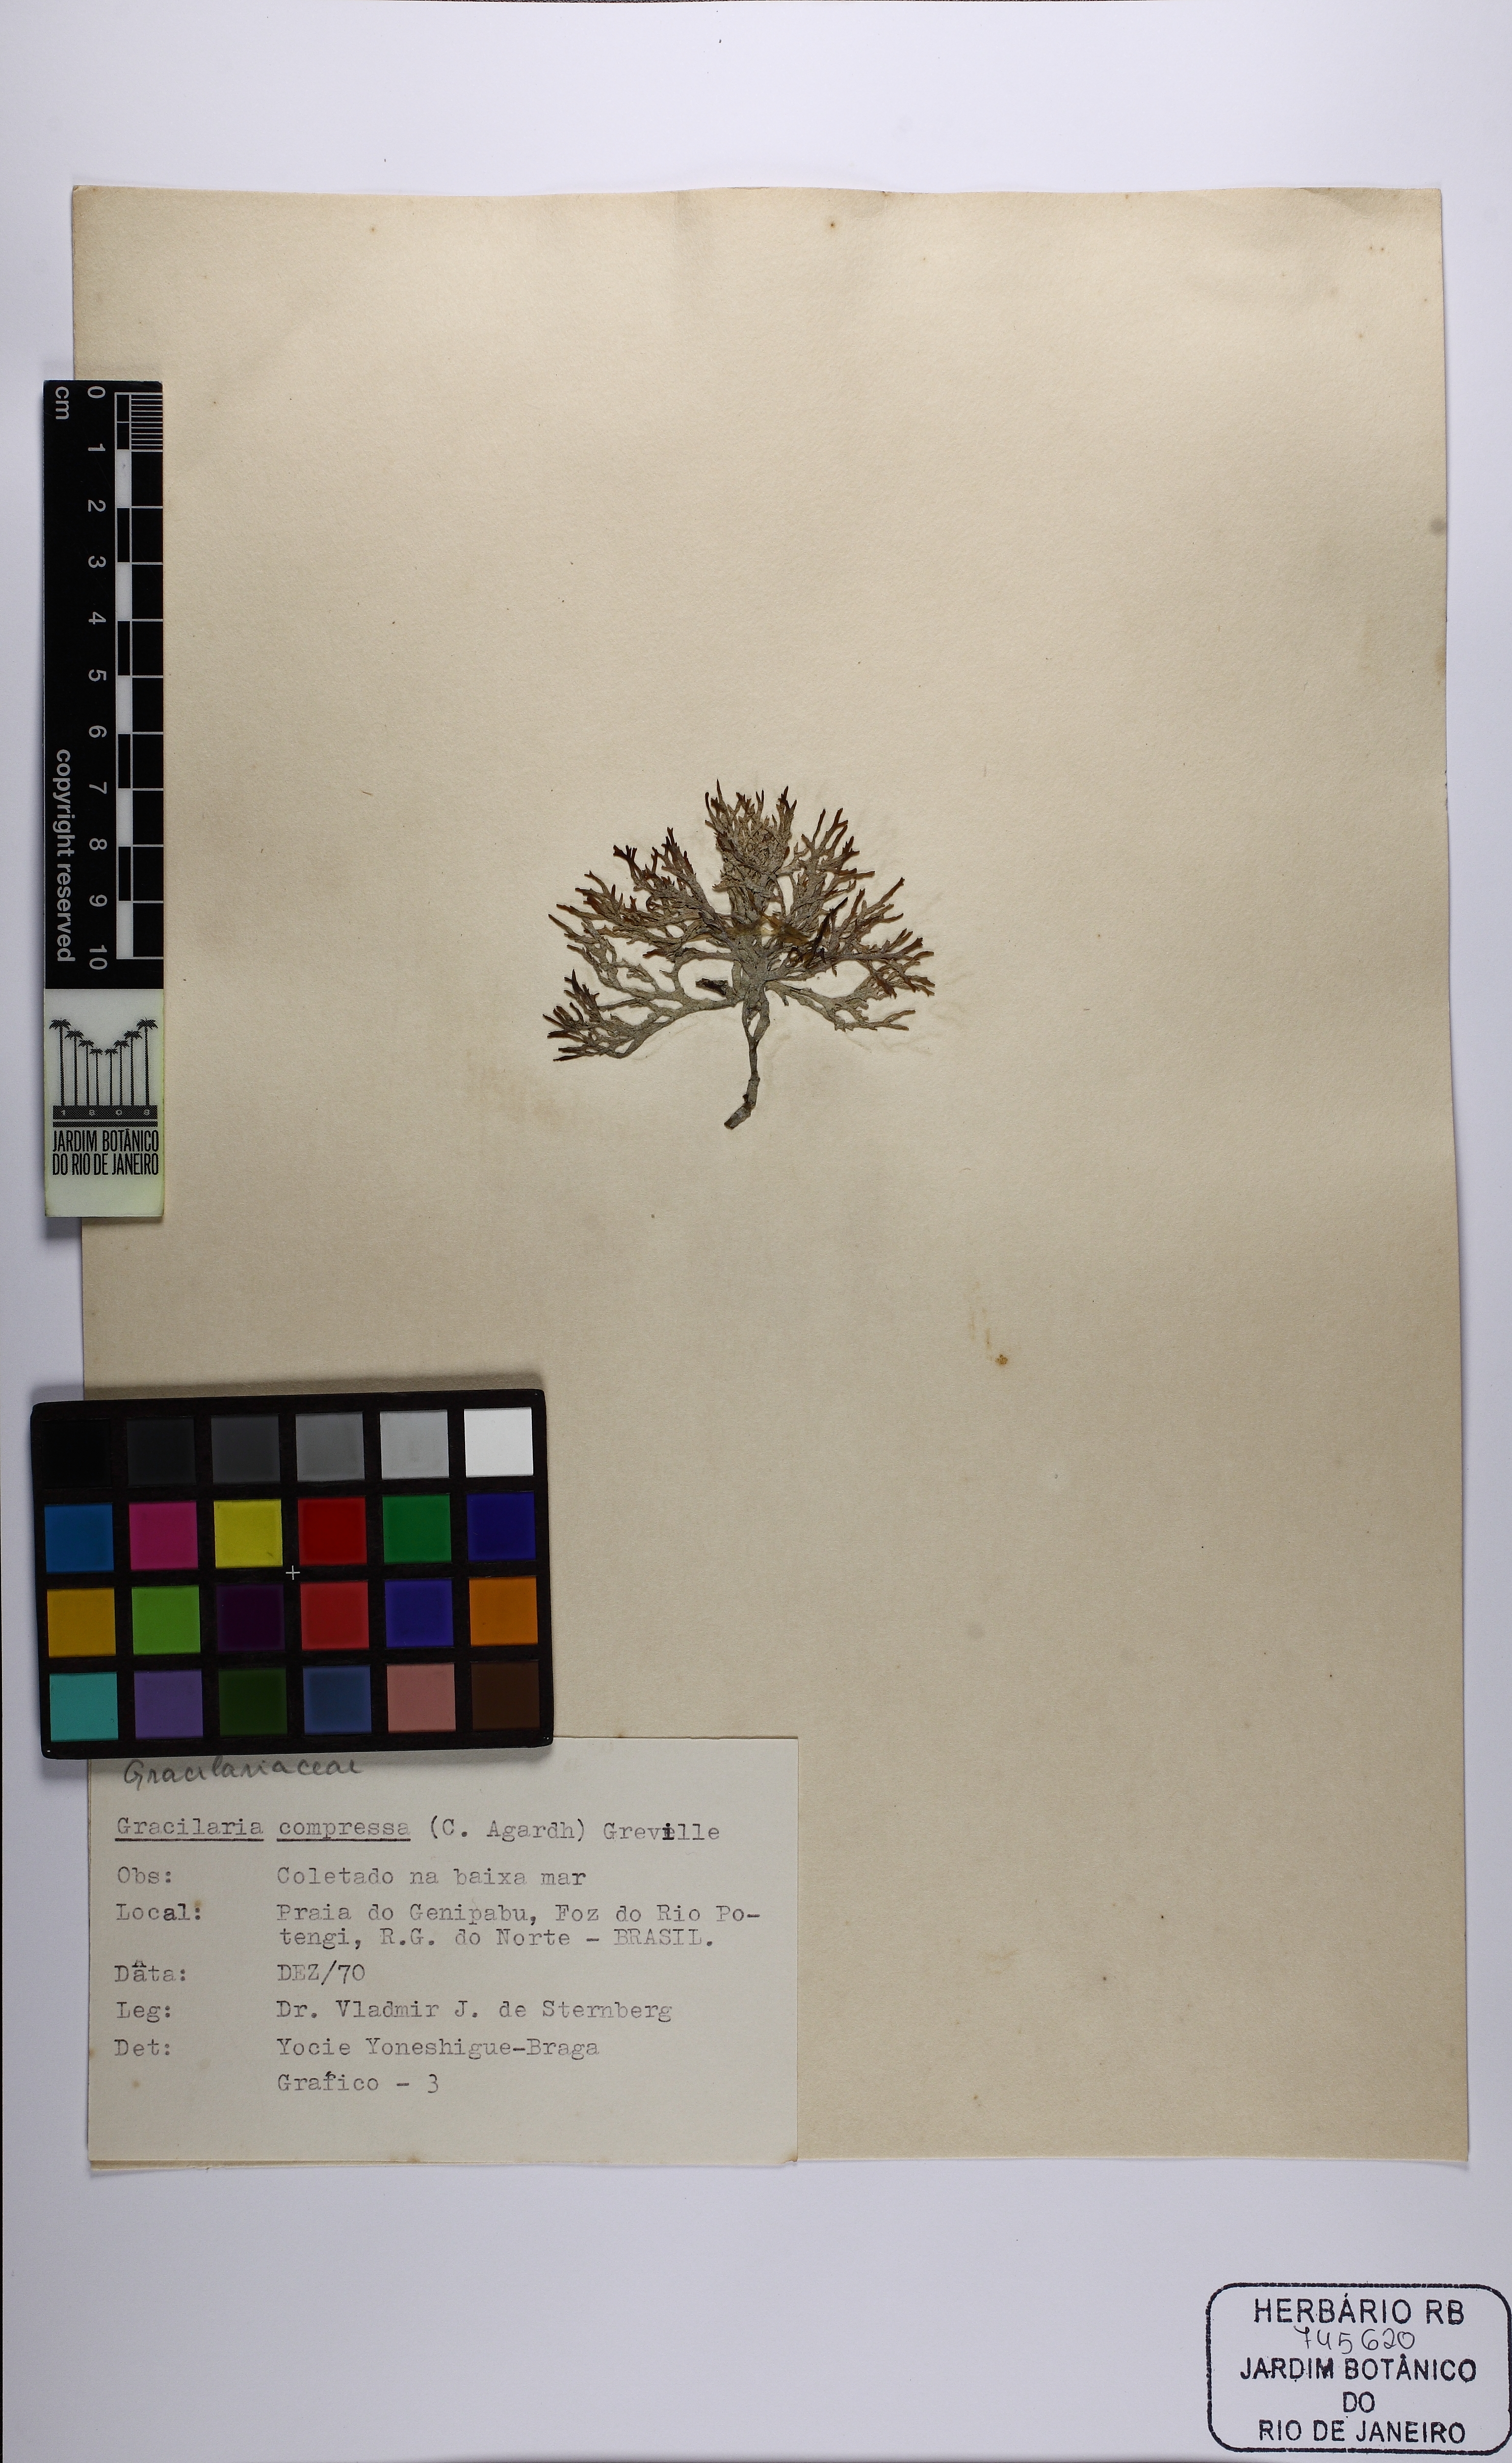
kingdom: Plantae
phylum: Rhodophyta
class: Florideophyceae
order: Gracilariales
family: Gracilariaceae
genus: Gracilaria
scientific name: Gracilaria bursa-pastoris
